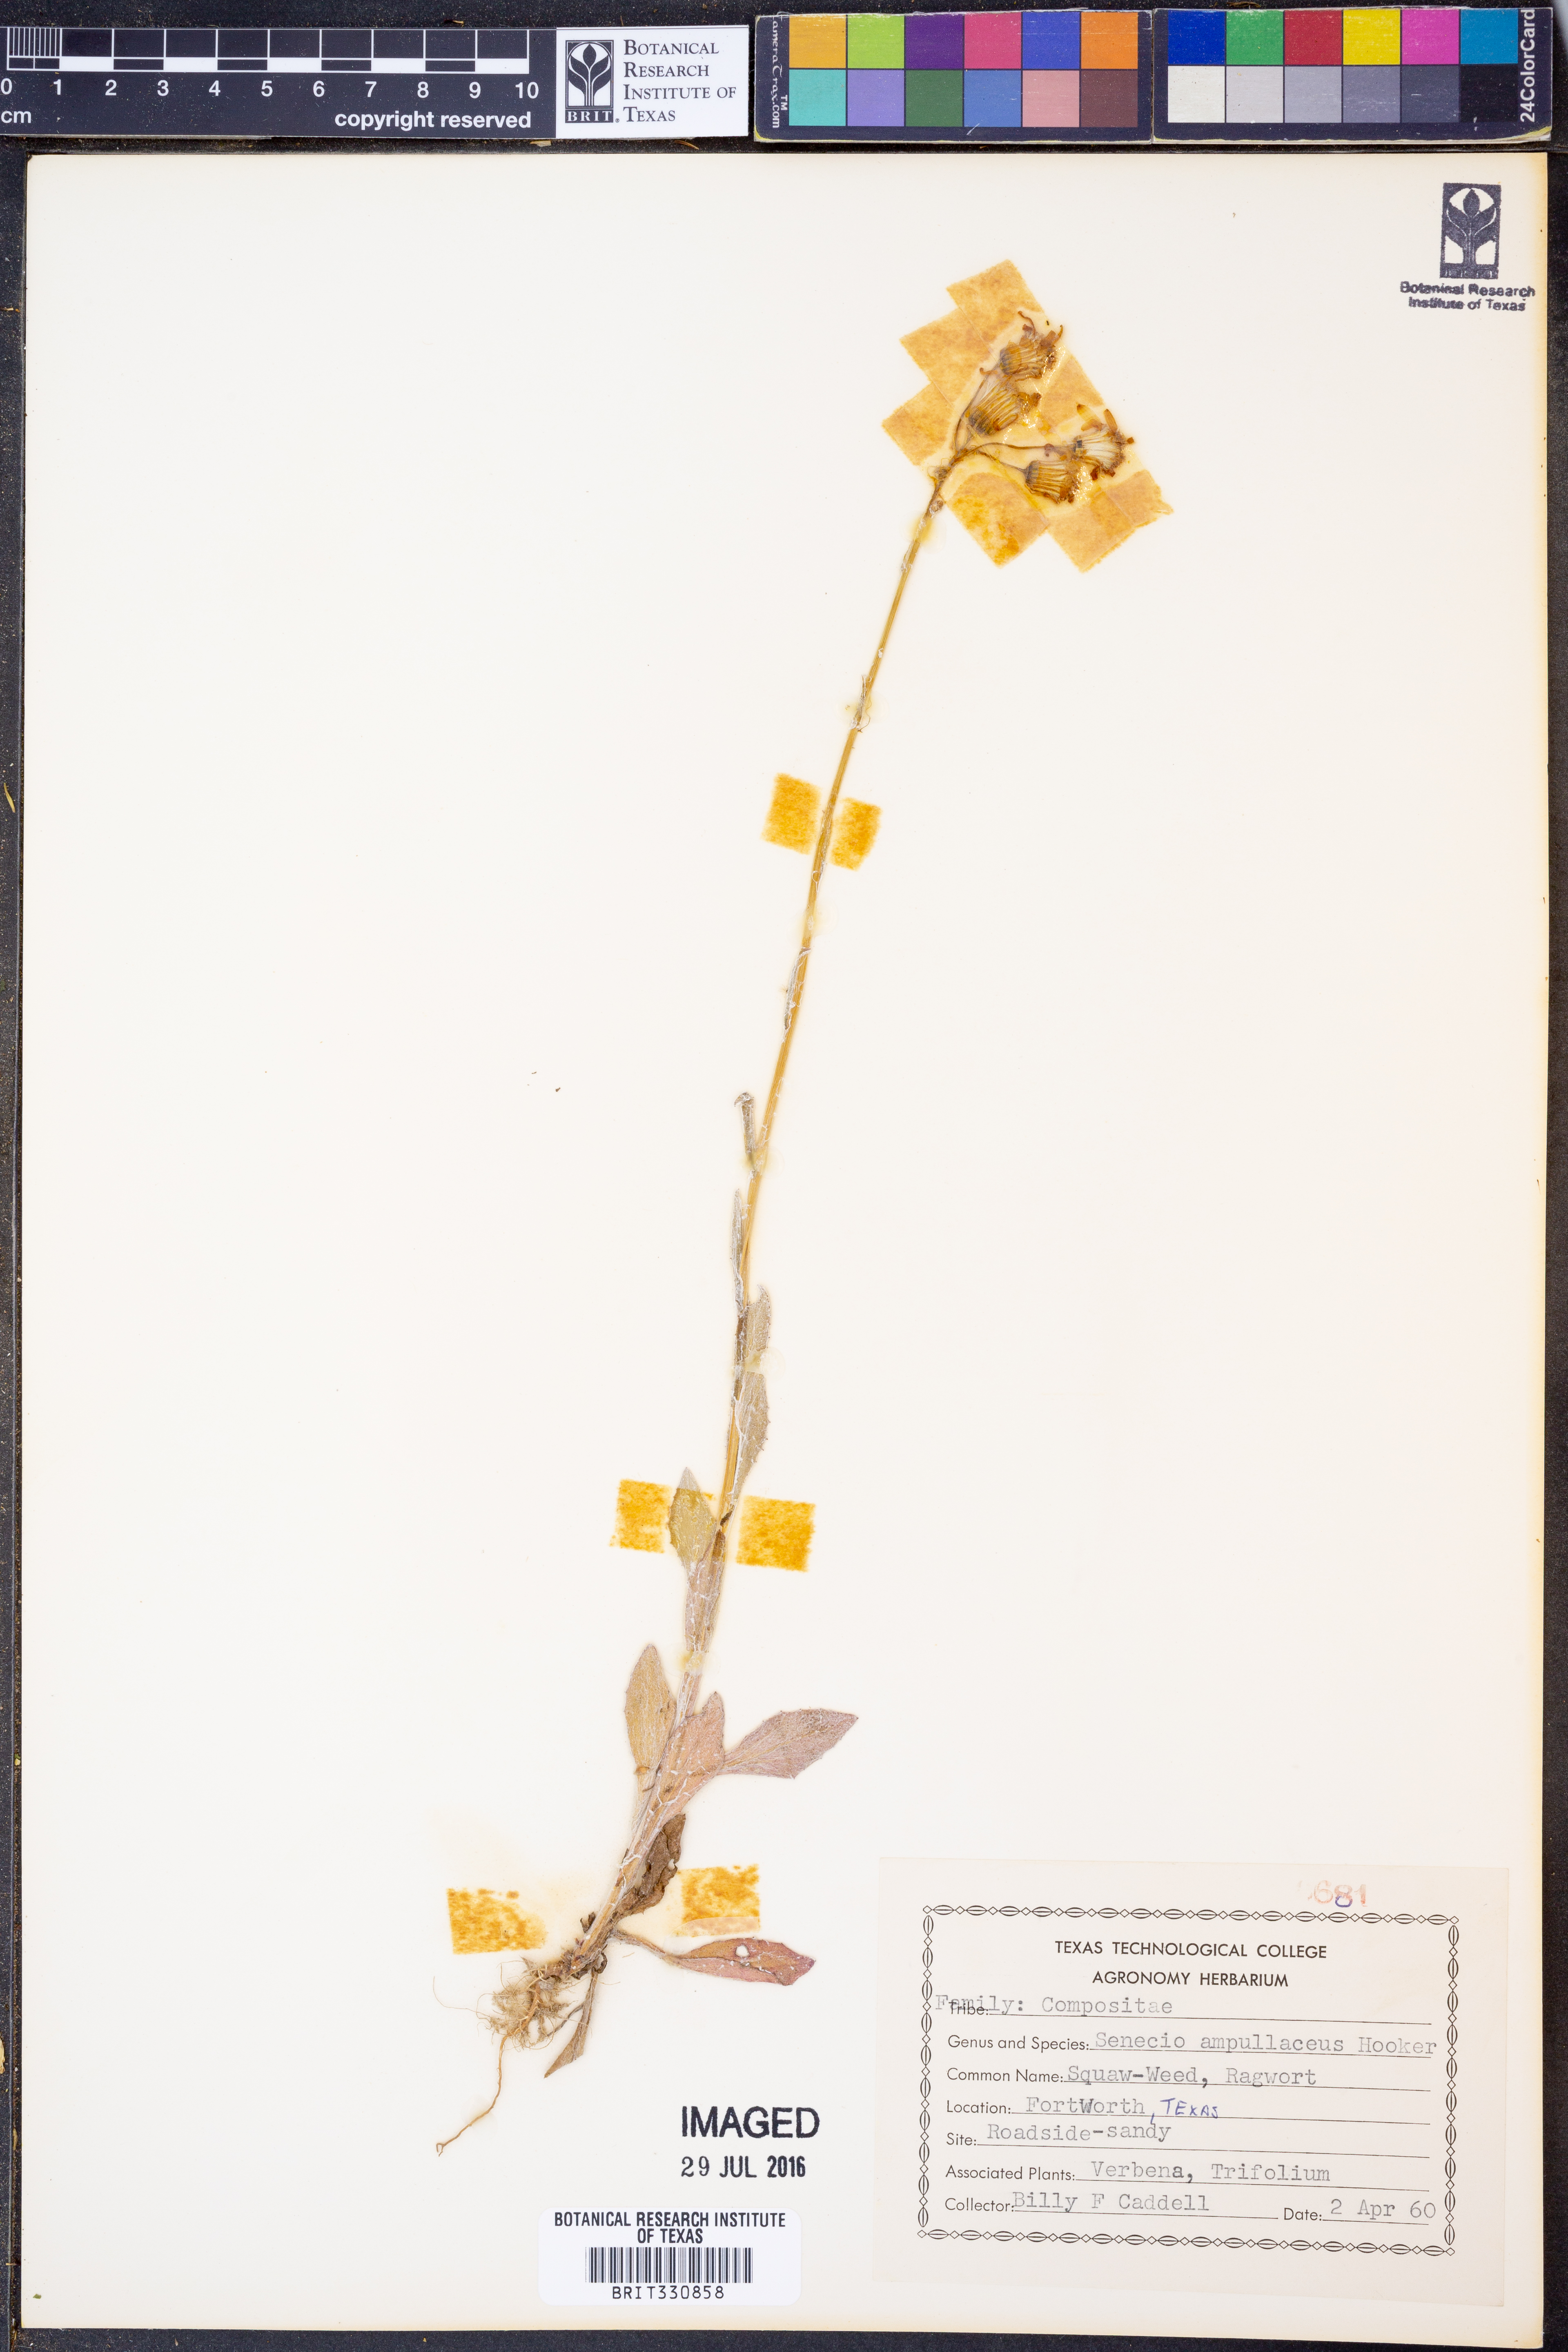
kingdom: Plantae
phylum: Tracheophyta
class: Magnoliopsida
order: Asterales
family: Asteraceae
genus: Senecio
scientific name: Senecio ampullaceus
